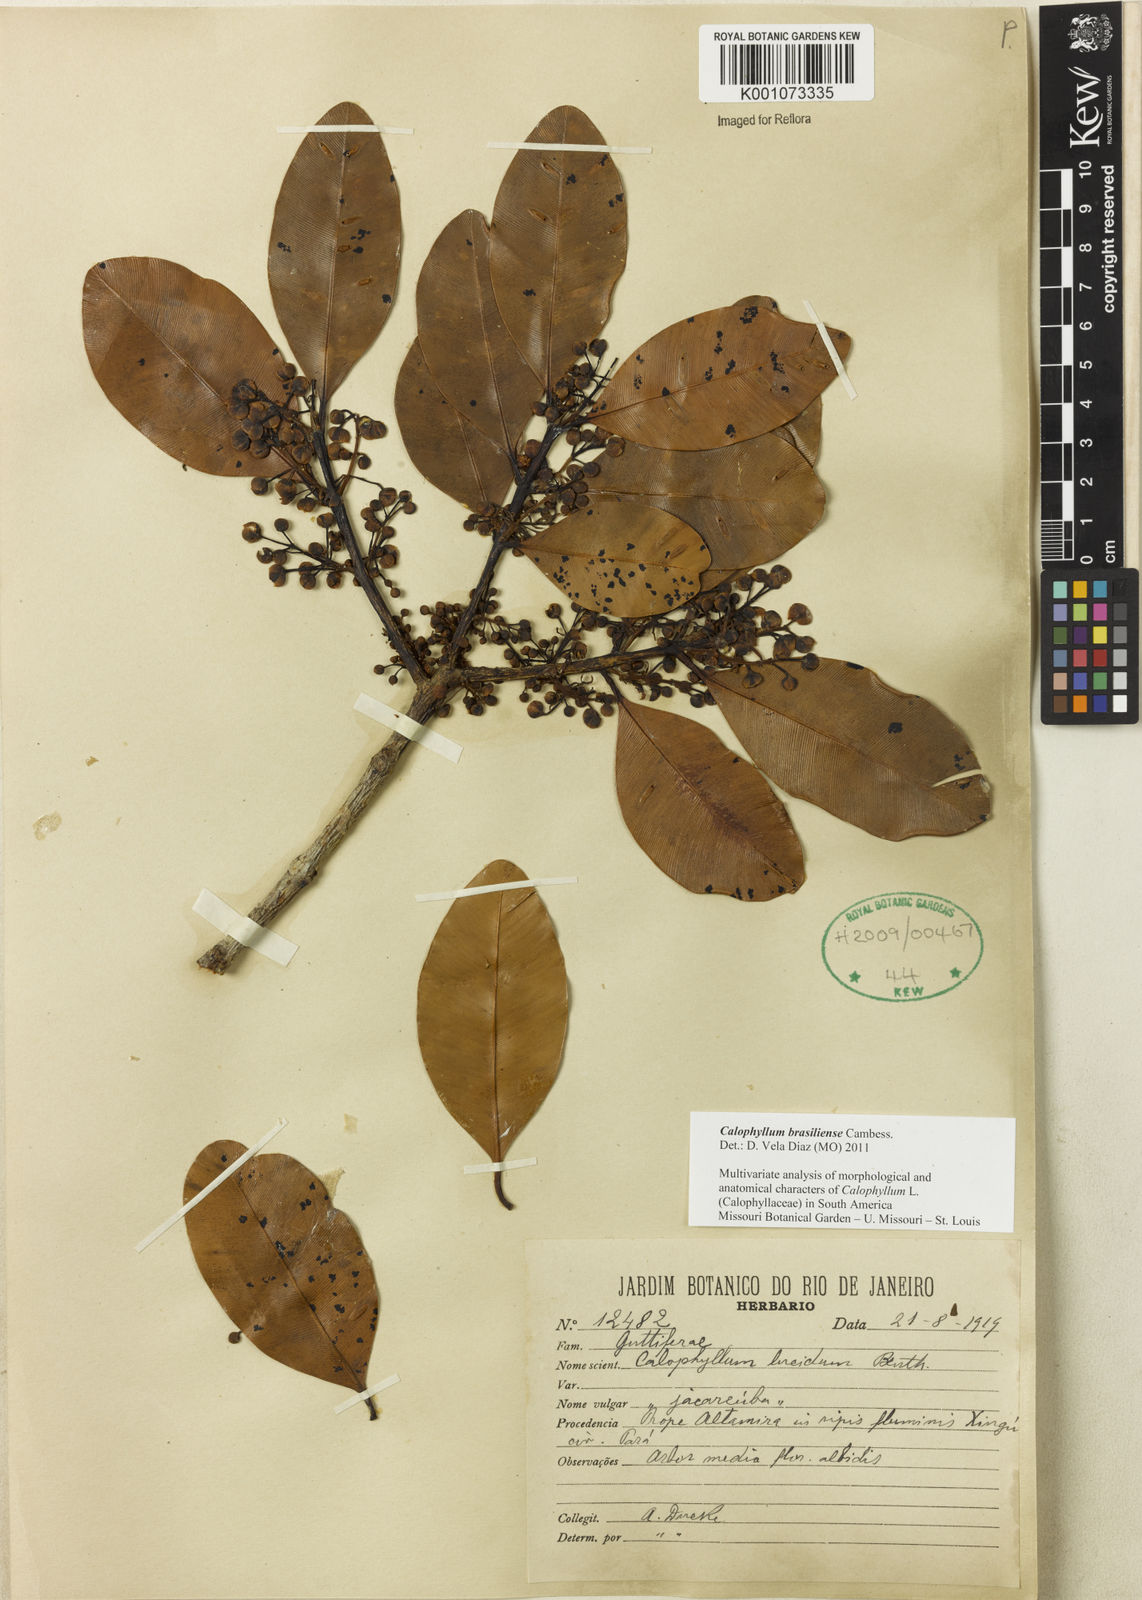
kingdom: Plantae
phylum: Tracheophyta
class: Magnoliopsida
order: Malpighiales
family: Calophyllaceae
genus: Calophyllum
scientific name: Calophyllum brasiliense
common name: Santa maria
